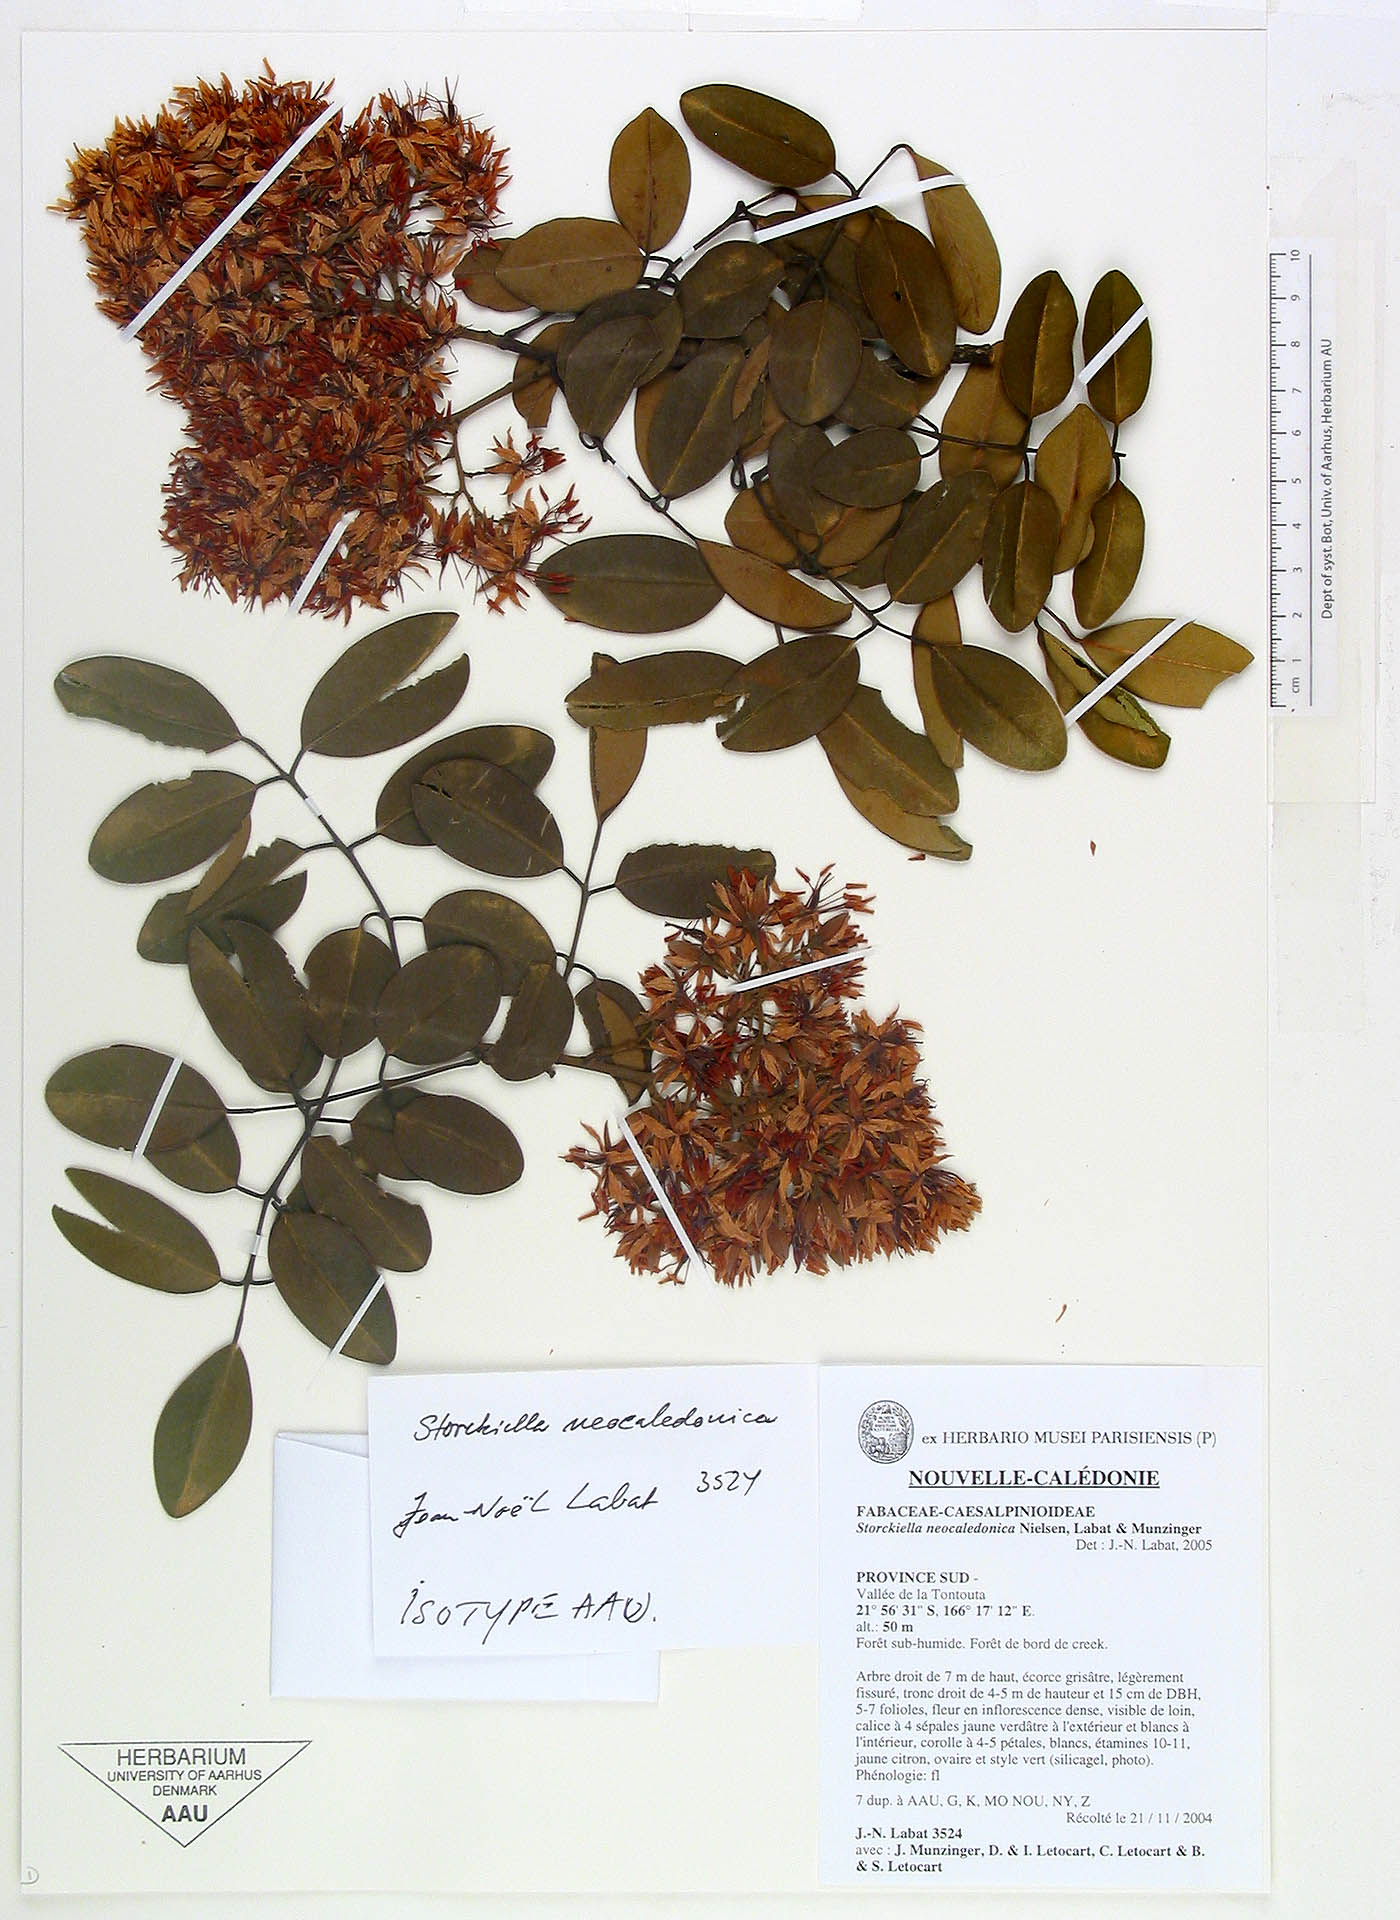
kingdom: Plantae
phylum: Tracheophyta
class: Magnoliopsida
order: Fabales
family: Fabaceae
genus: Storckiella
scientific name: Storckiella neocaledonica
